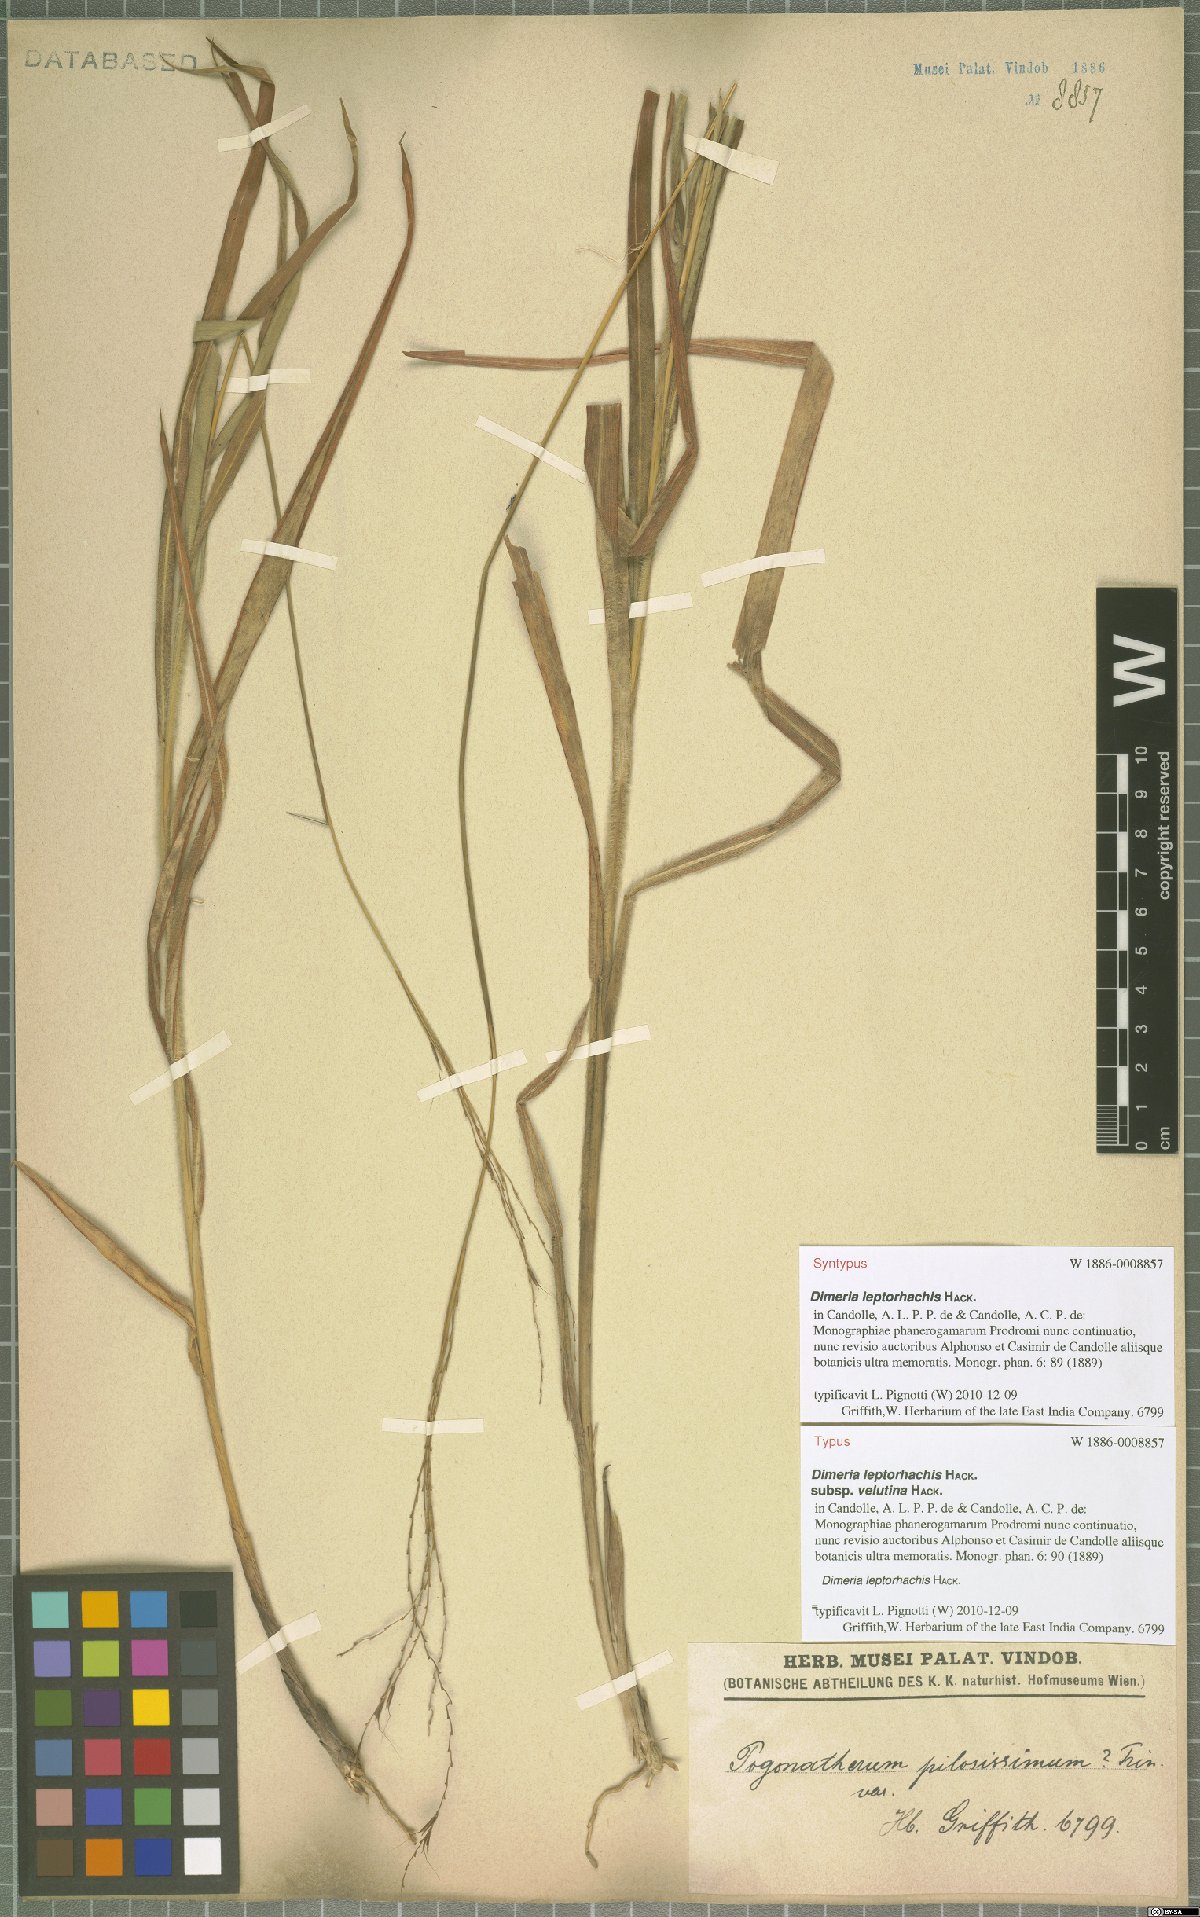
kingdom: Plantae
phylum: Tracheophyta
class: Liliopsida
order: Poales
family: Poaceae
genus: Dimeria
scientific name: Dimeria gracilis
